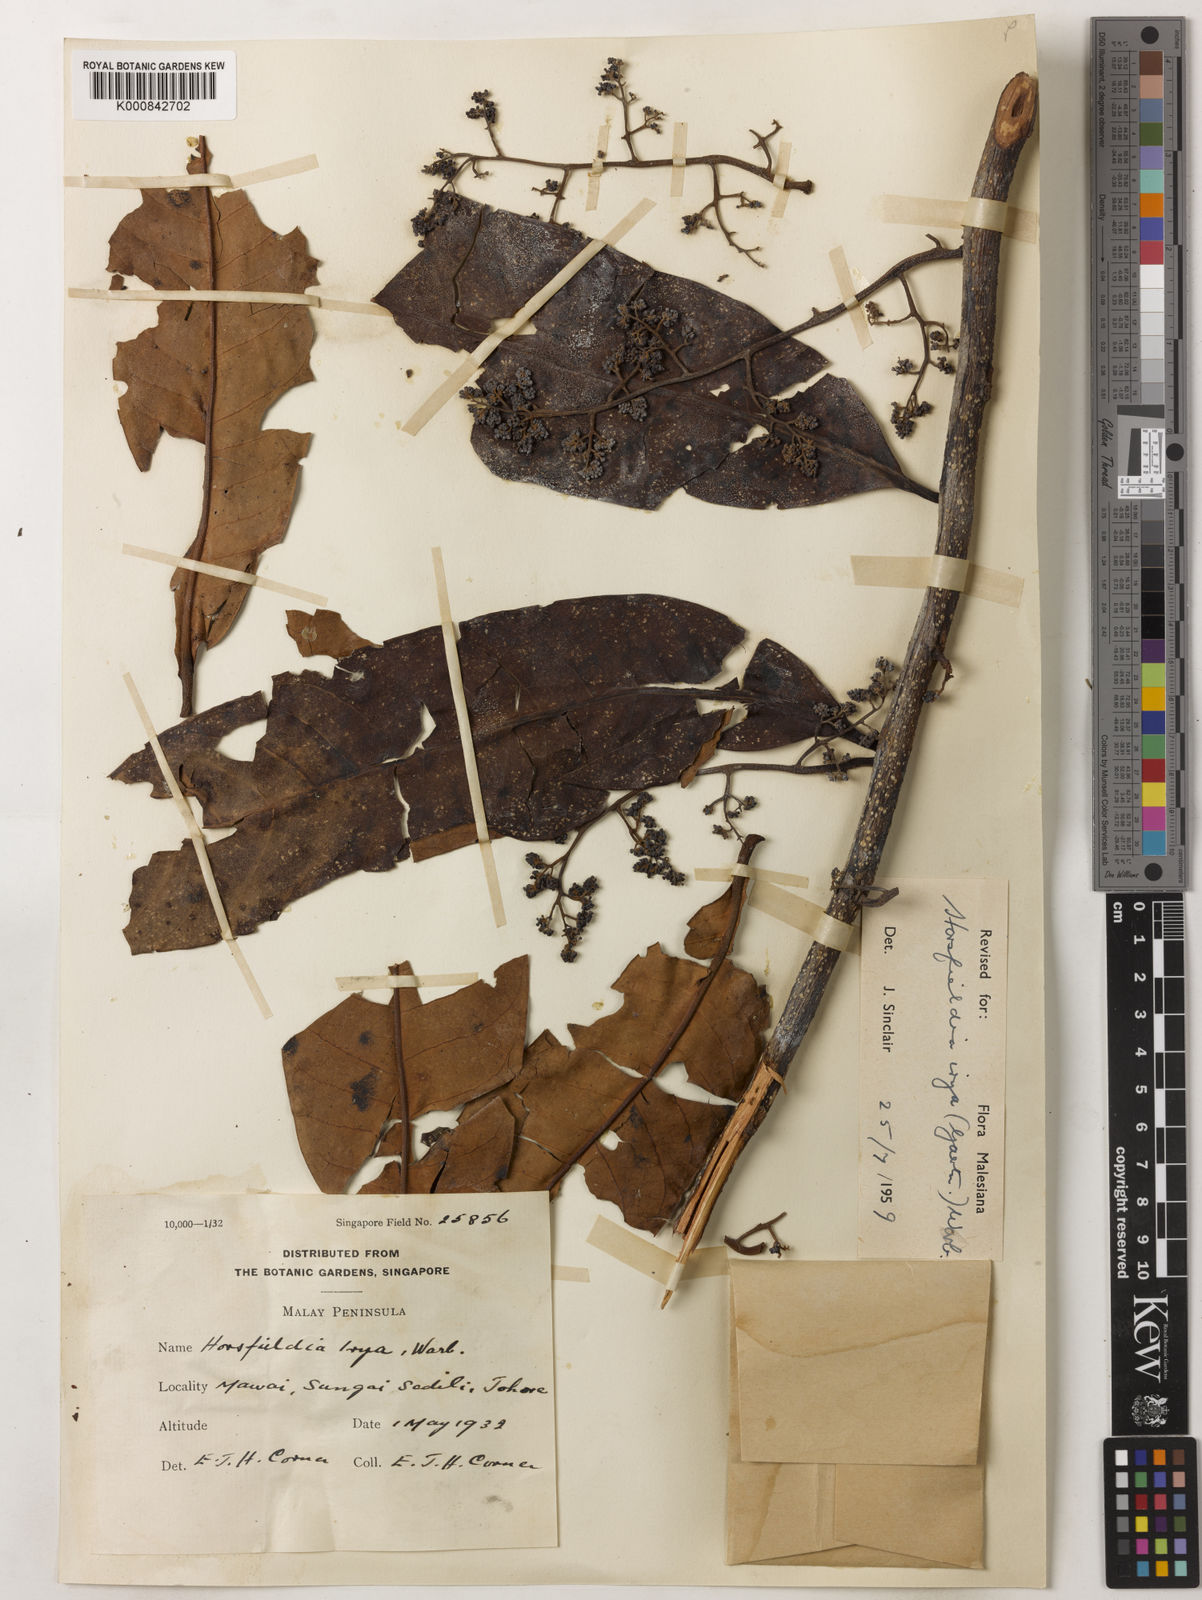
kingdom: Plantae
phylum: Tracheophyta
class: Magnoliopsida
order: Magnoliales
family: Myristicaceae
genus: Horsfieldia
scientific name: Horsfieldia irya
